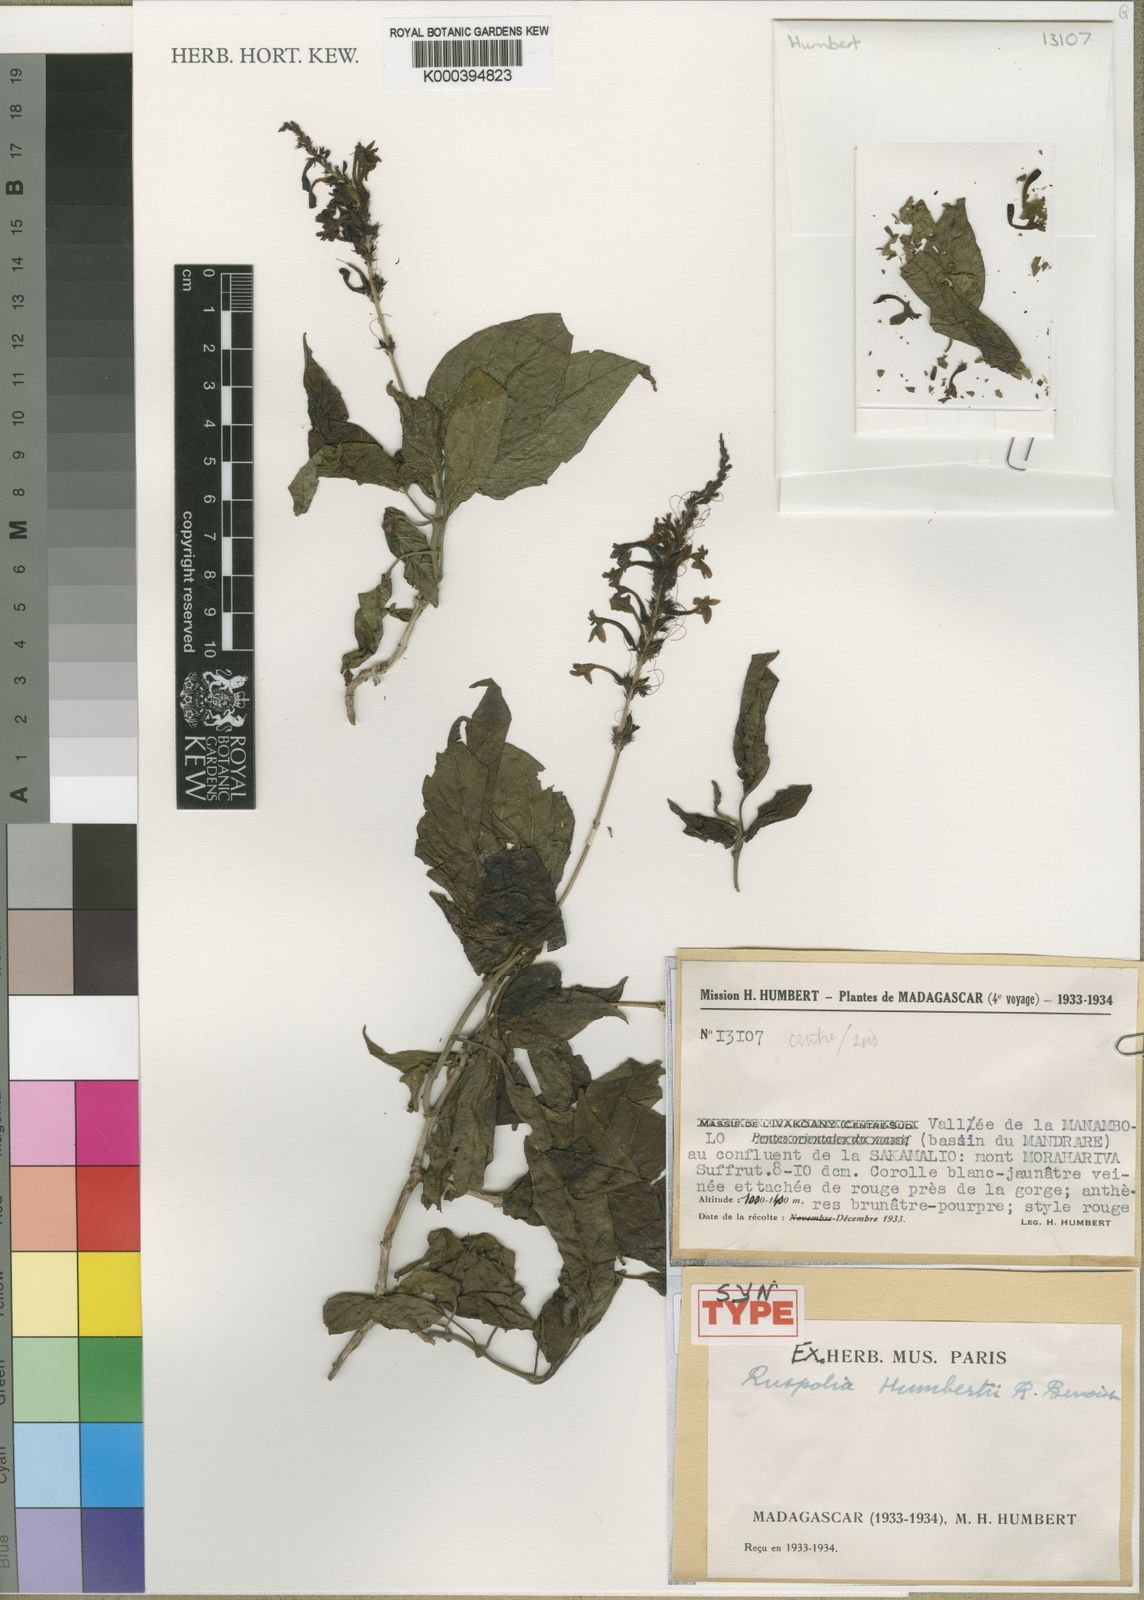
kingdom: Plantae
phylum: Tracheophyta
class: Magnoliopsida
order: Lamiales
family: Acanthaceae
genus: Ruspolia
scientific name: Ruspolia humbertii
